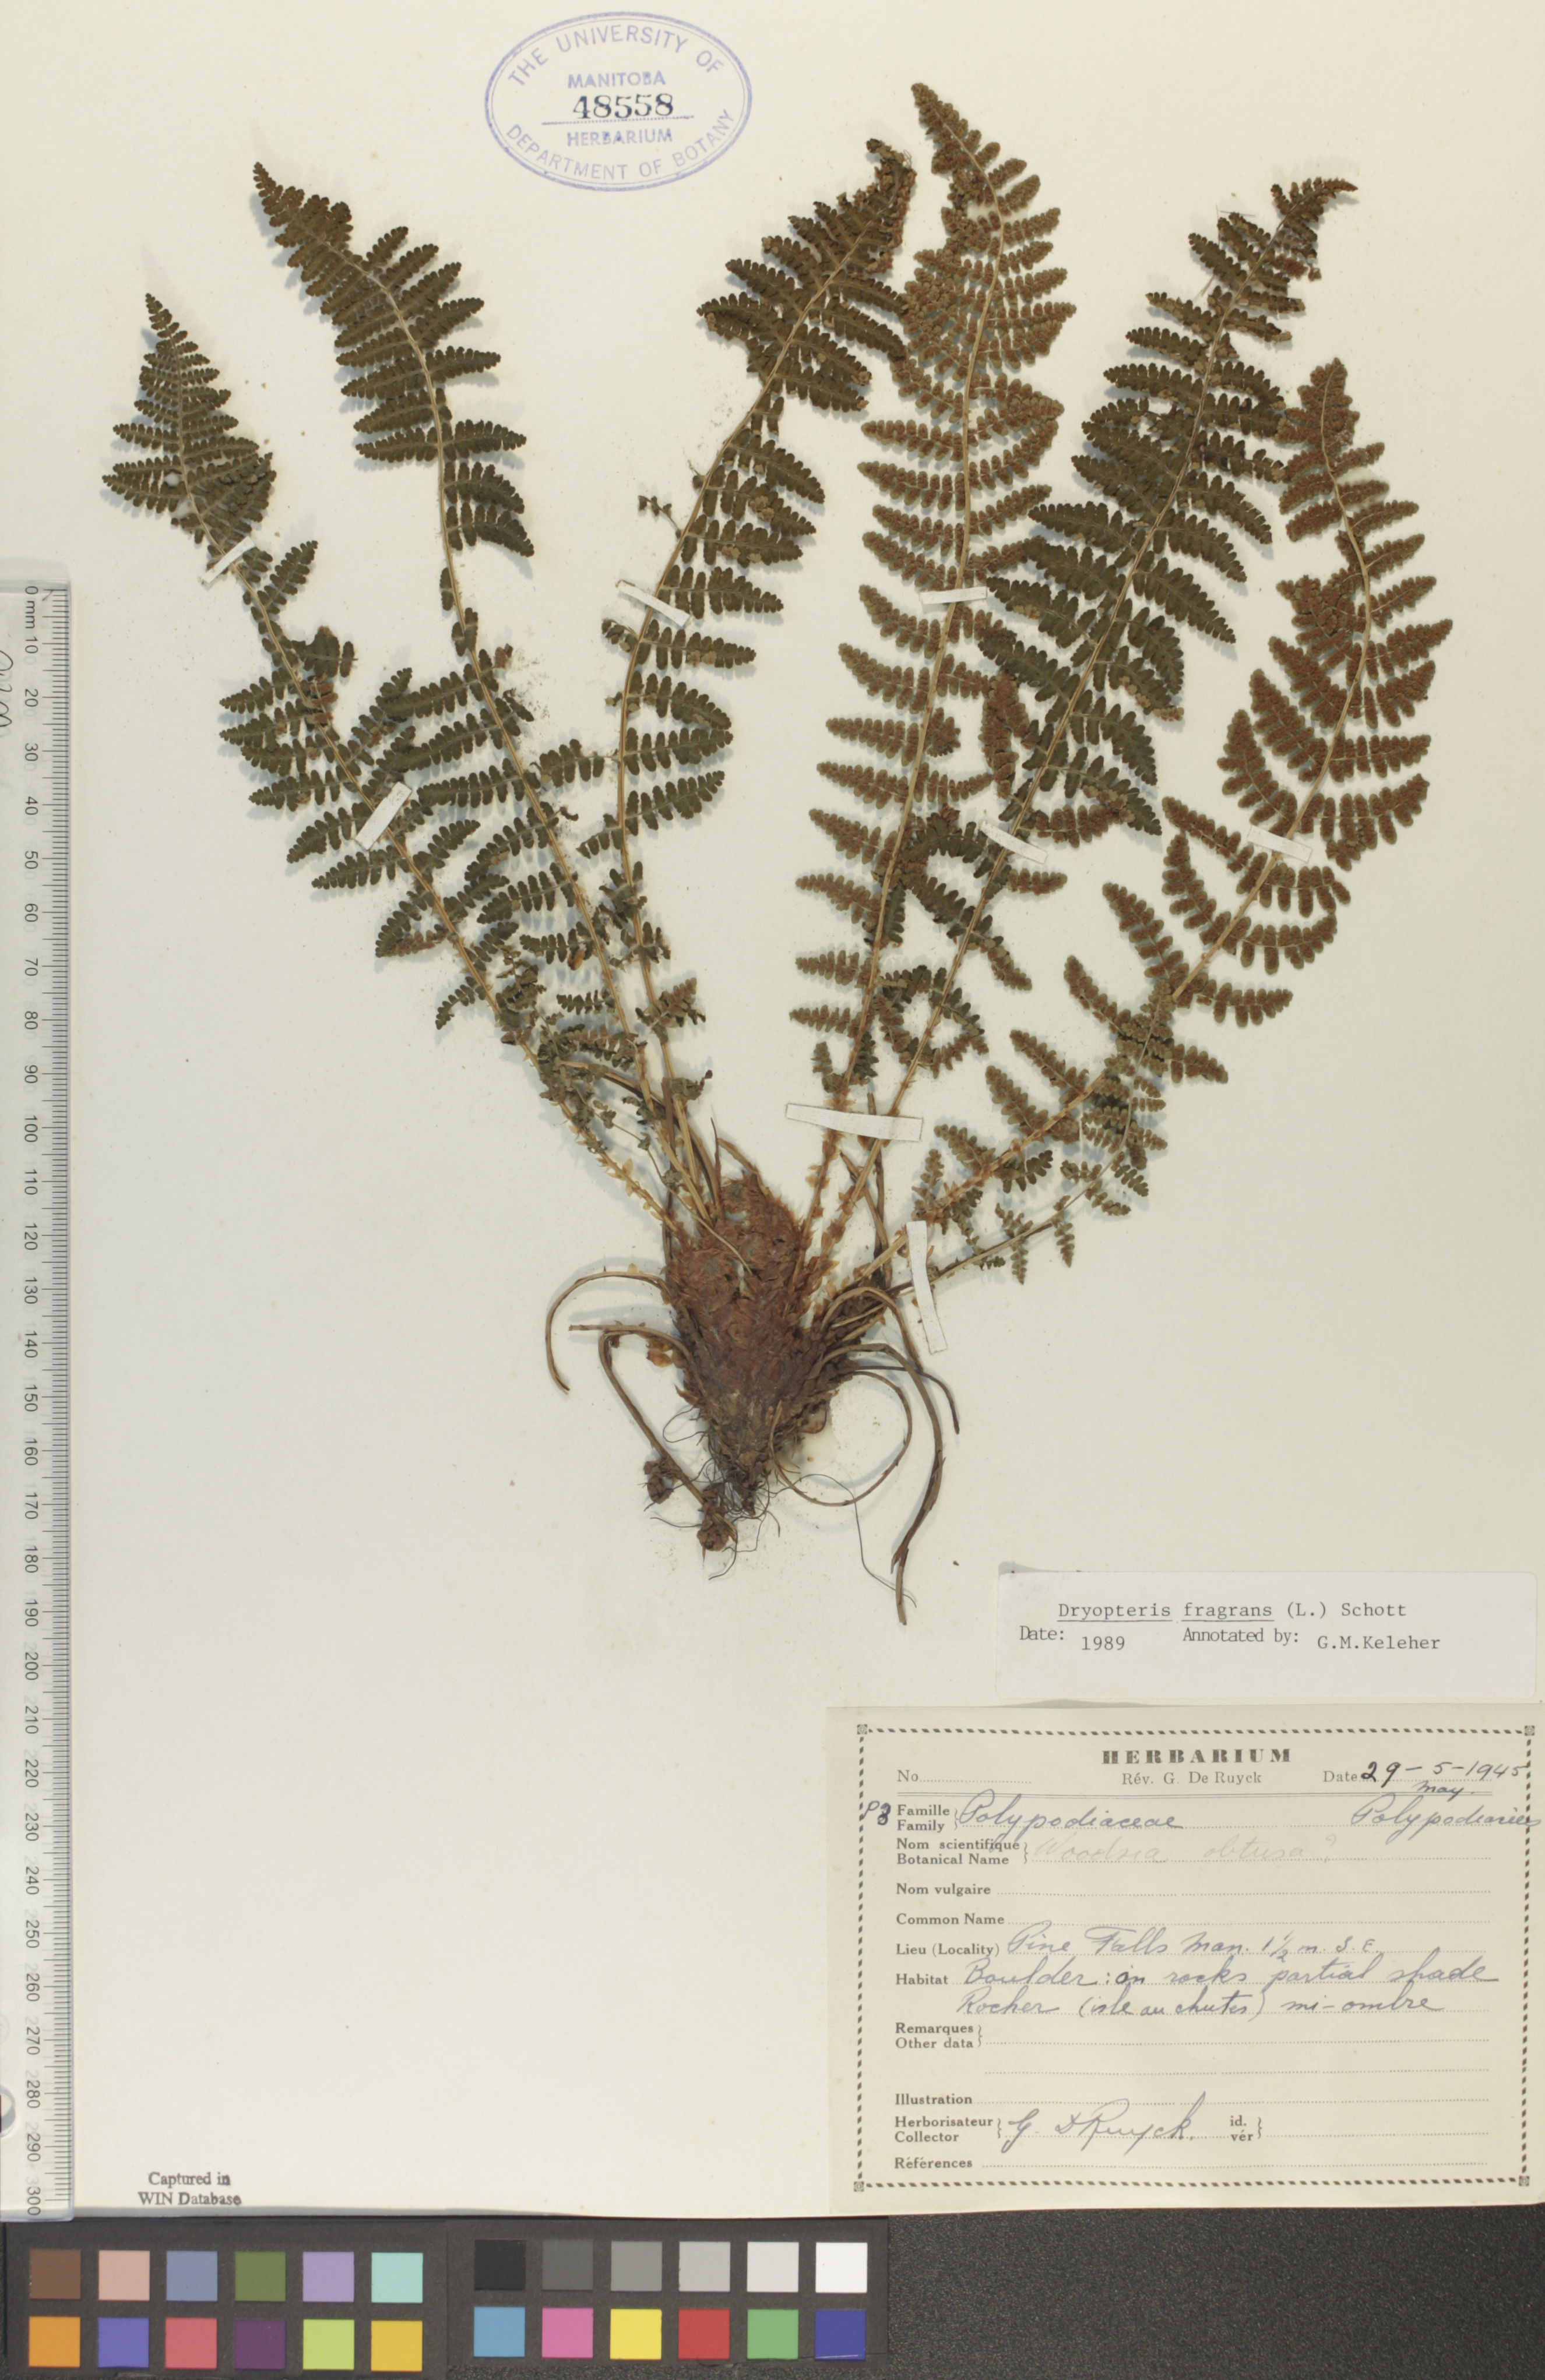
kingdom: Plantae
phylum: Tracheophyta
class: Polypodiopsida
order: Polypodiales
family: Dryopteridaceae
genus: Dryopteris
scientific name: Dryopteris fragrans
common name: Fragrant wood fern
